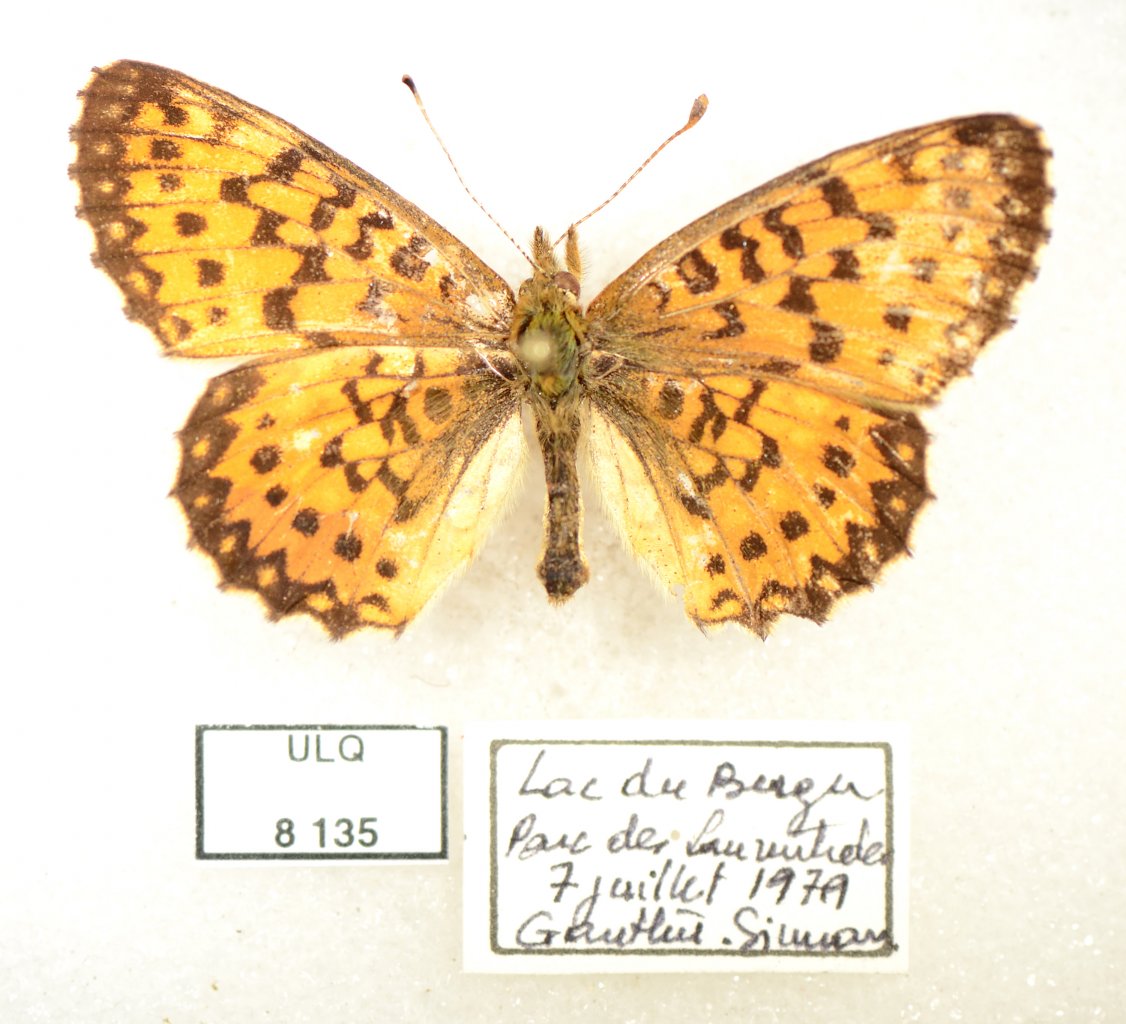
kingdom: Animalia
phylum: Arthropoda
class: Insecta
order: Lepidoptera
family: Nymphalidae
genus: Boloria
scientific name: Boloria selene
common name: Silver-bordered Fritillary
